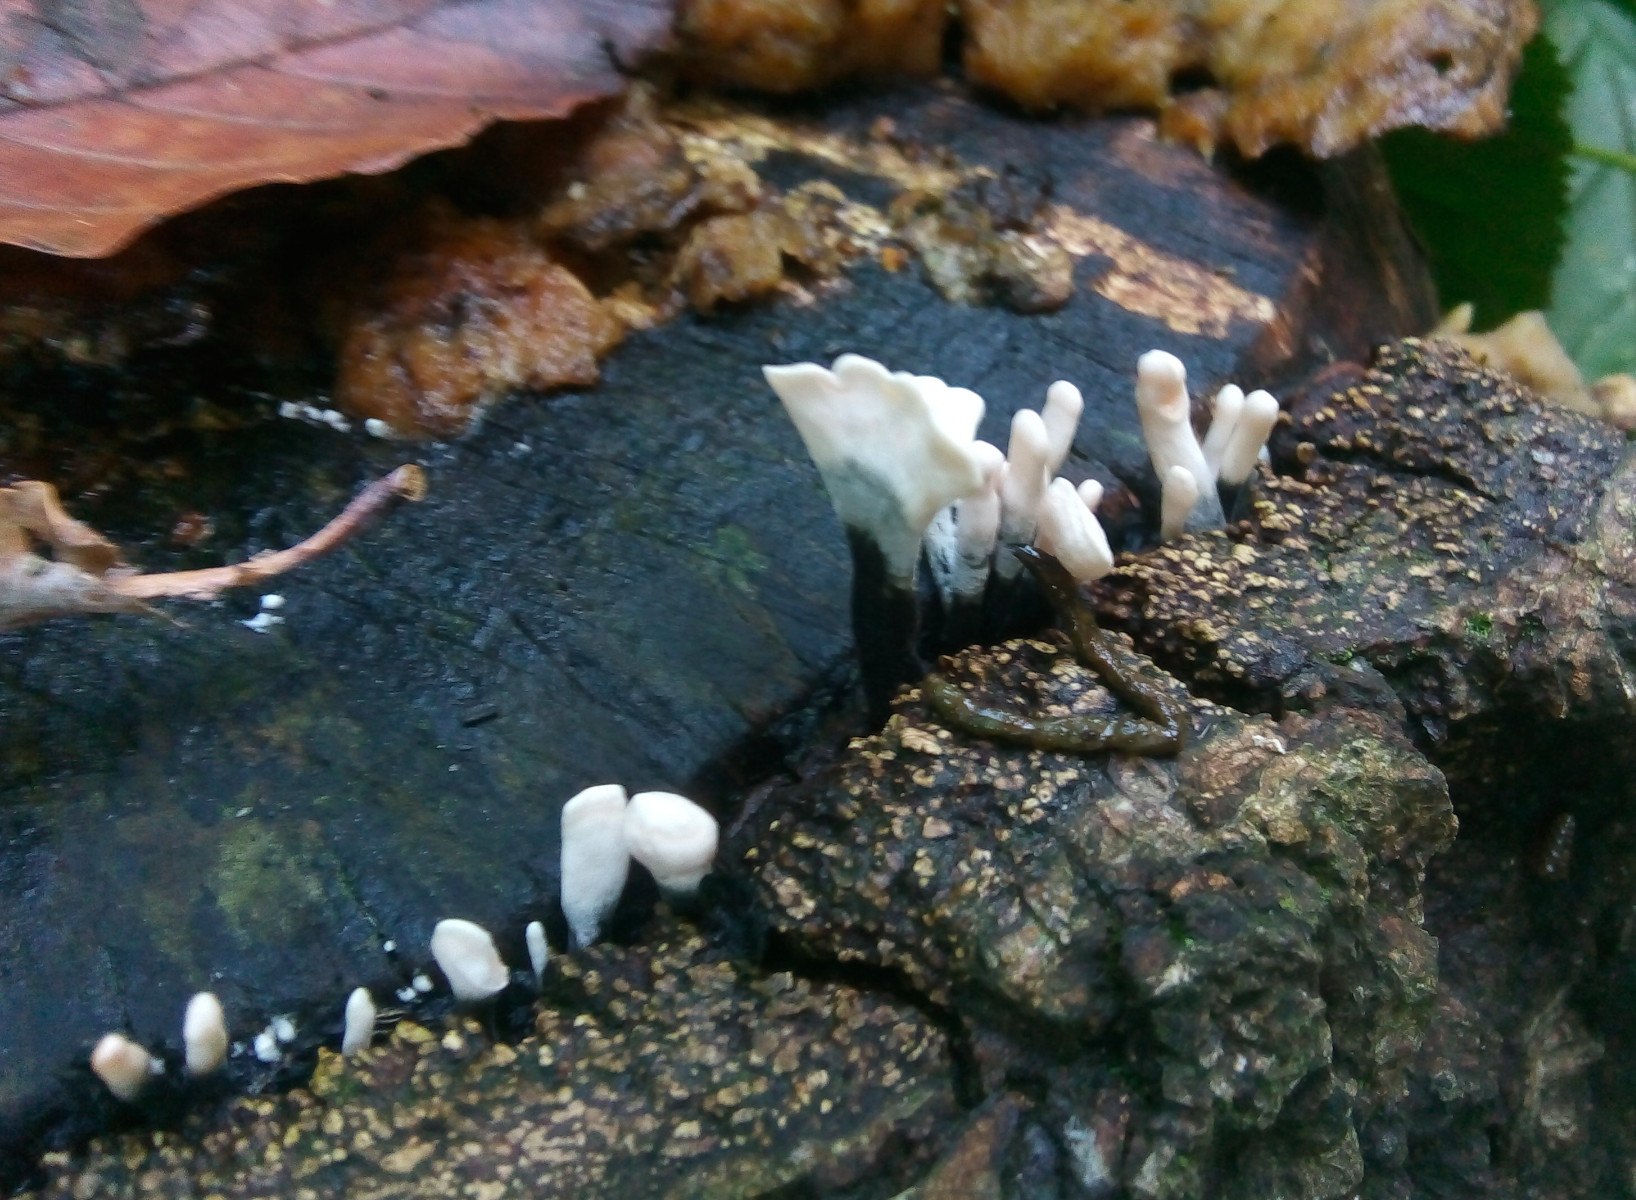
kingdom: Fungi
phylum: Ascomycota
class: Sordariomycetes
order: Xylariales
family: Xylariaceae
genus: Xylaria
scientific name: Xylaria hypoxylon
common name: grenet stødsvamp
